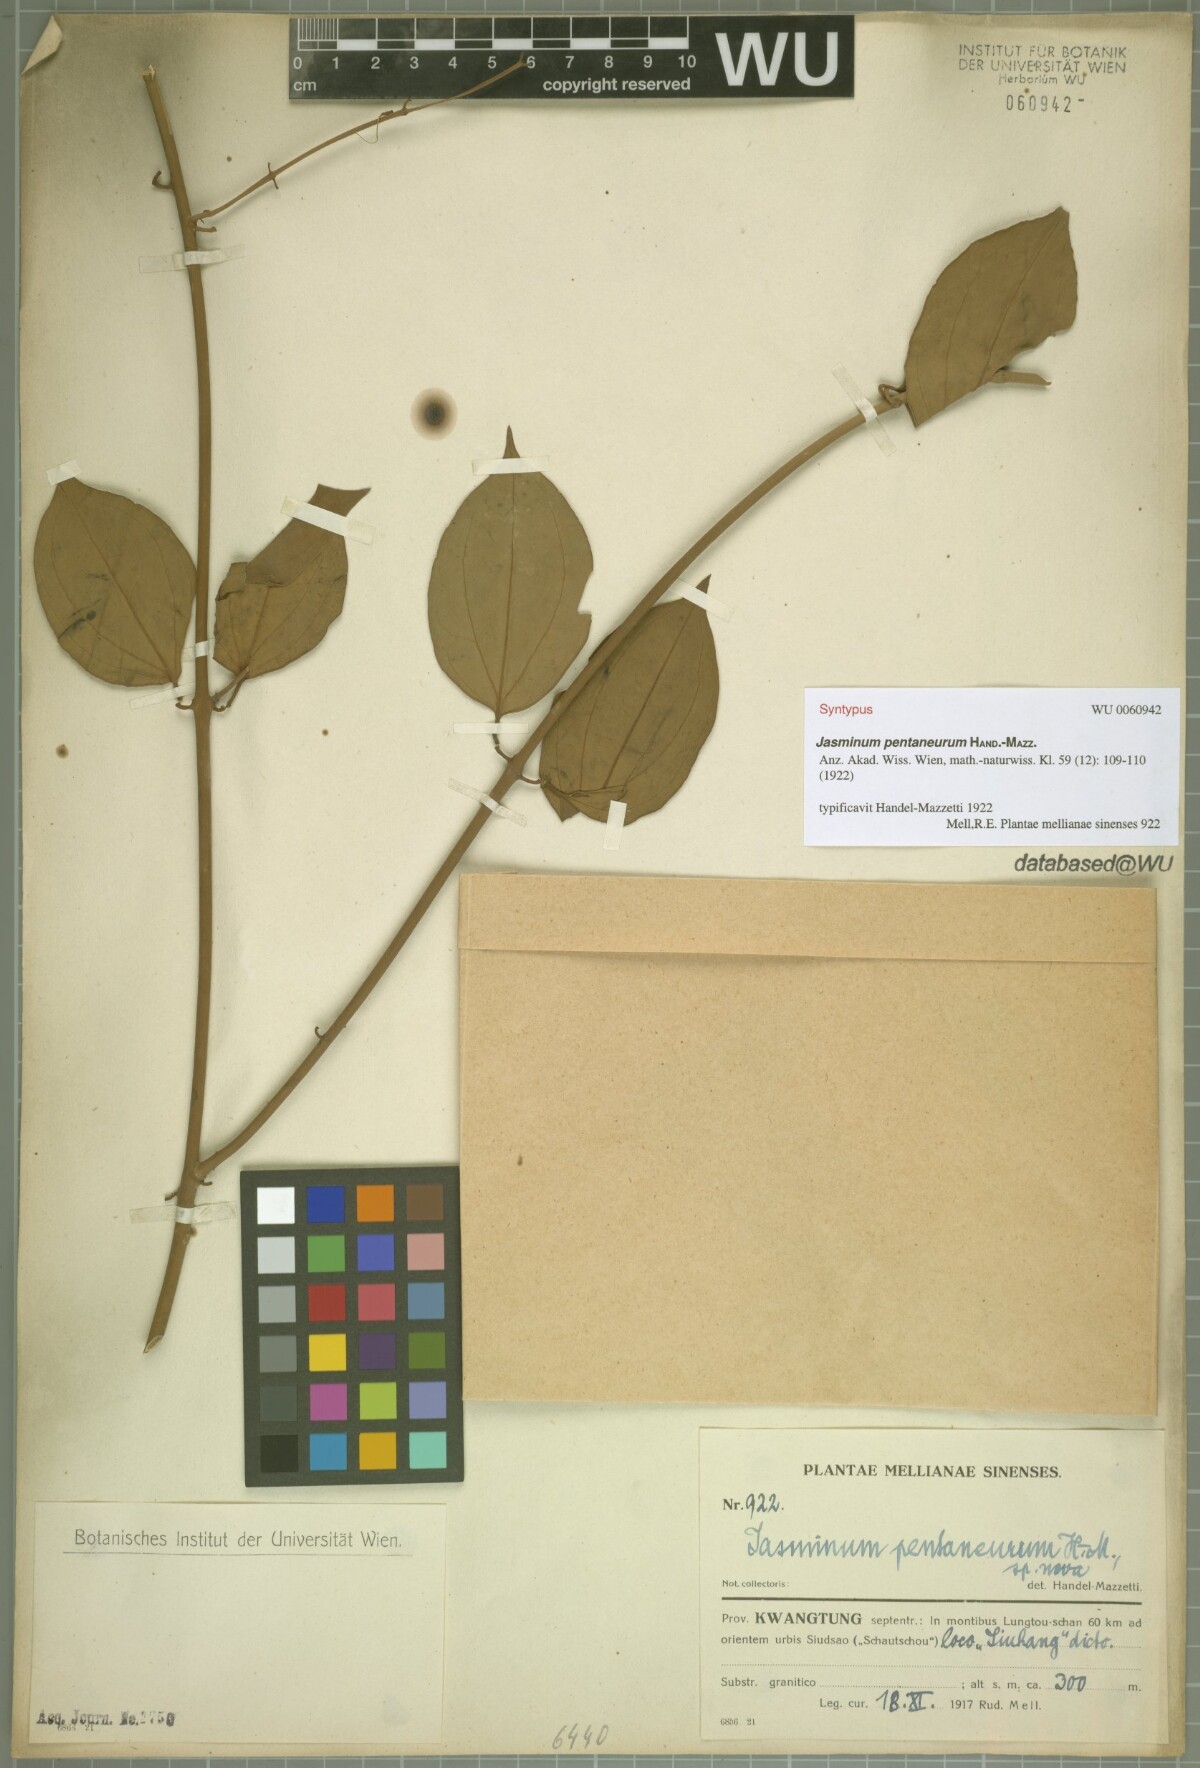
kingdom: Plantae
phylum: Tracheophyta
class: Magnoliopsida
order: Lamiales
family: Oleaceae
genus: Jasminum
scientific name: Jasminum pentaneurum
